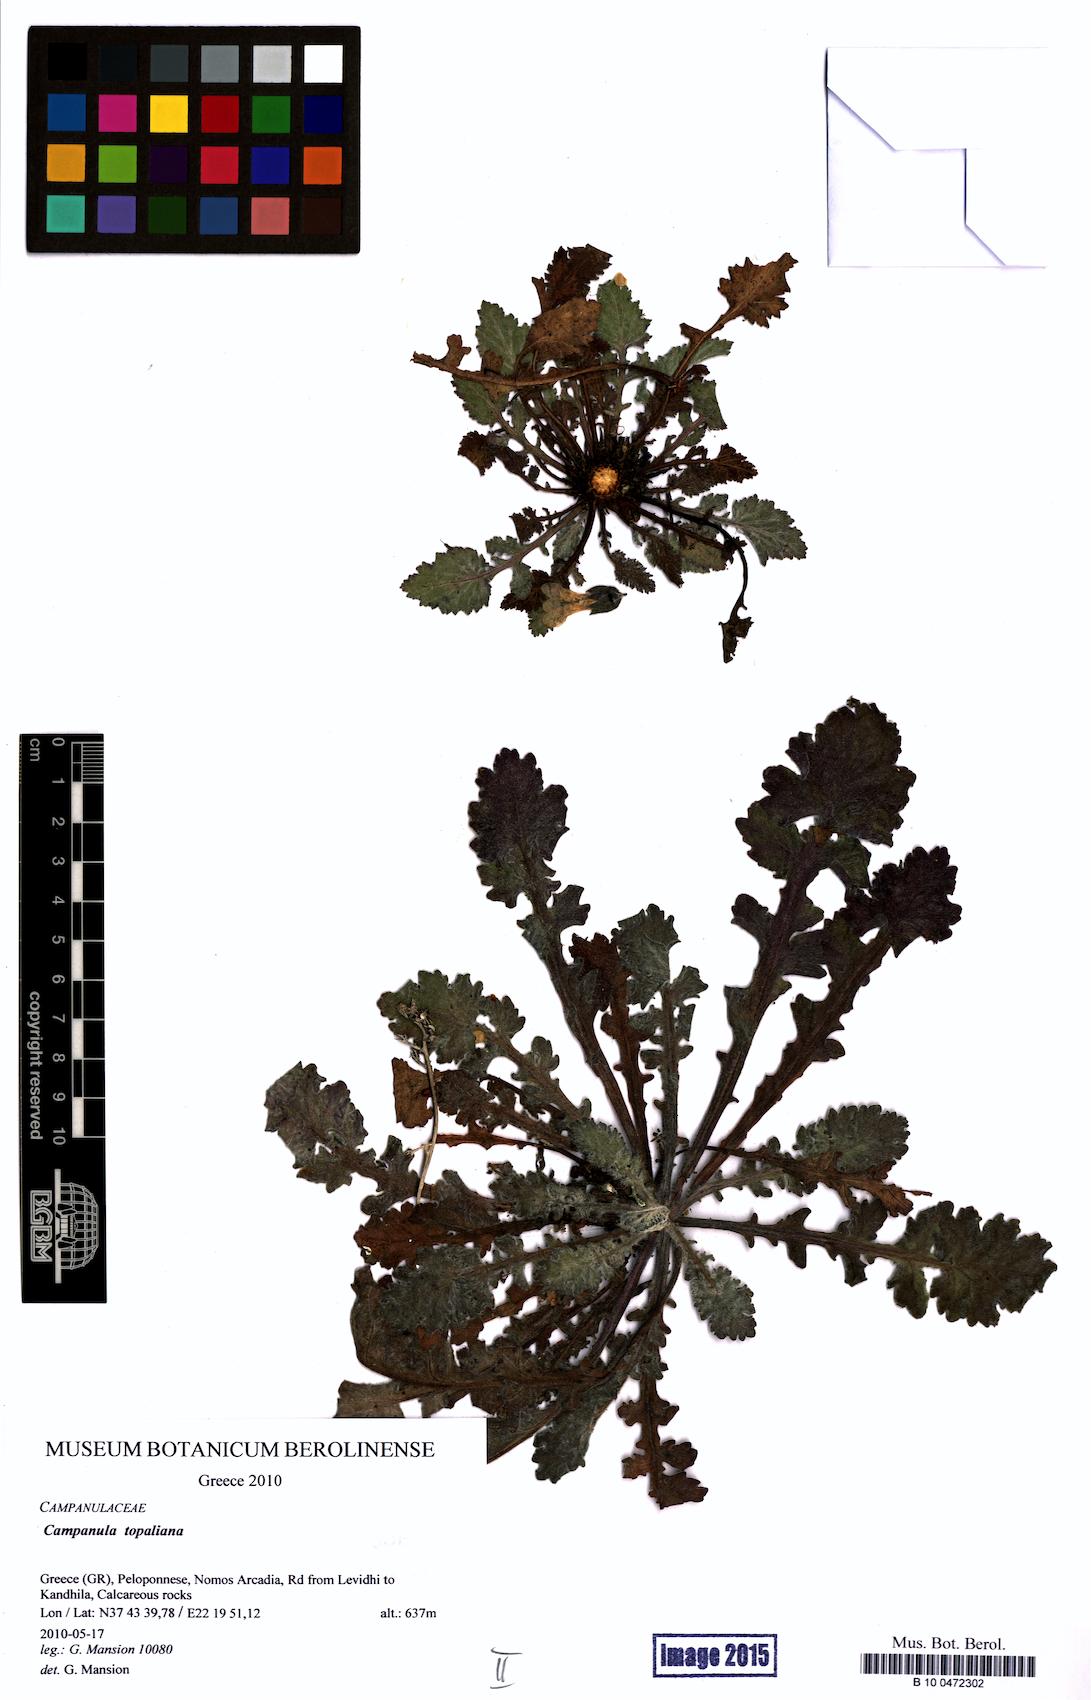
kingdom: Plantae
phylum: Tracheophyta
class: Magnoliopsida
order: Asterales
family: Campanulaceae
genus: Campanula
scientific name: Campanula topaliana
